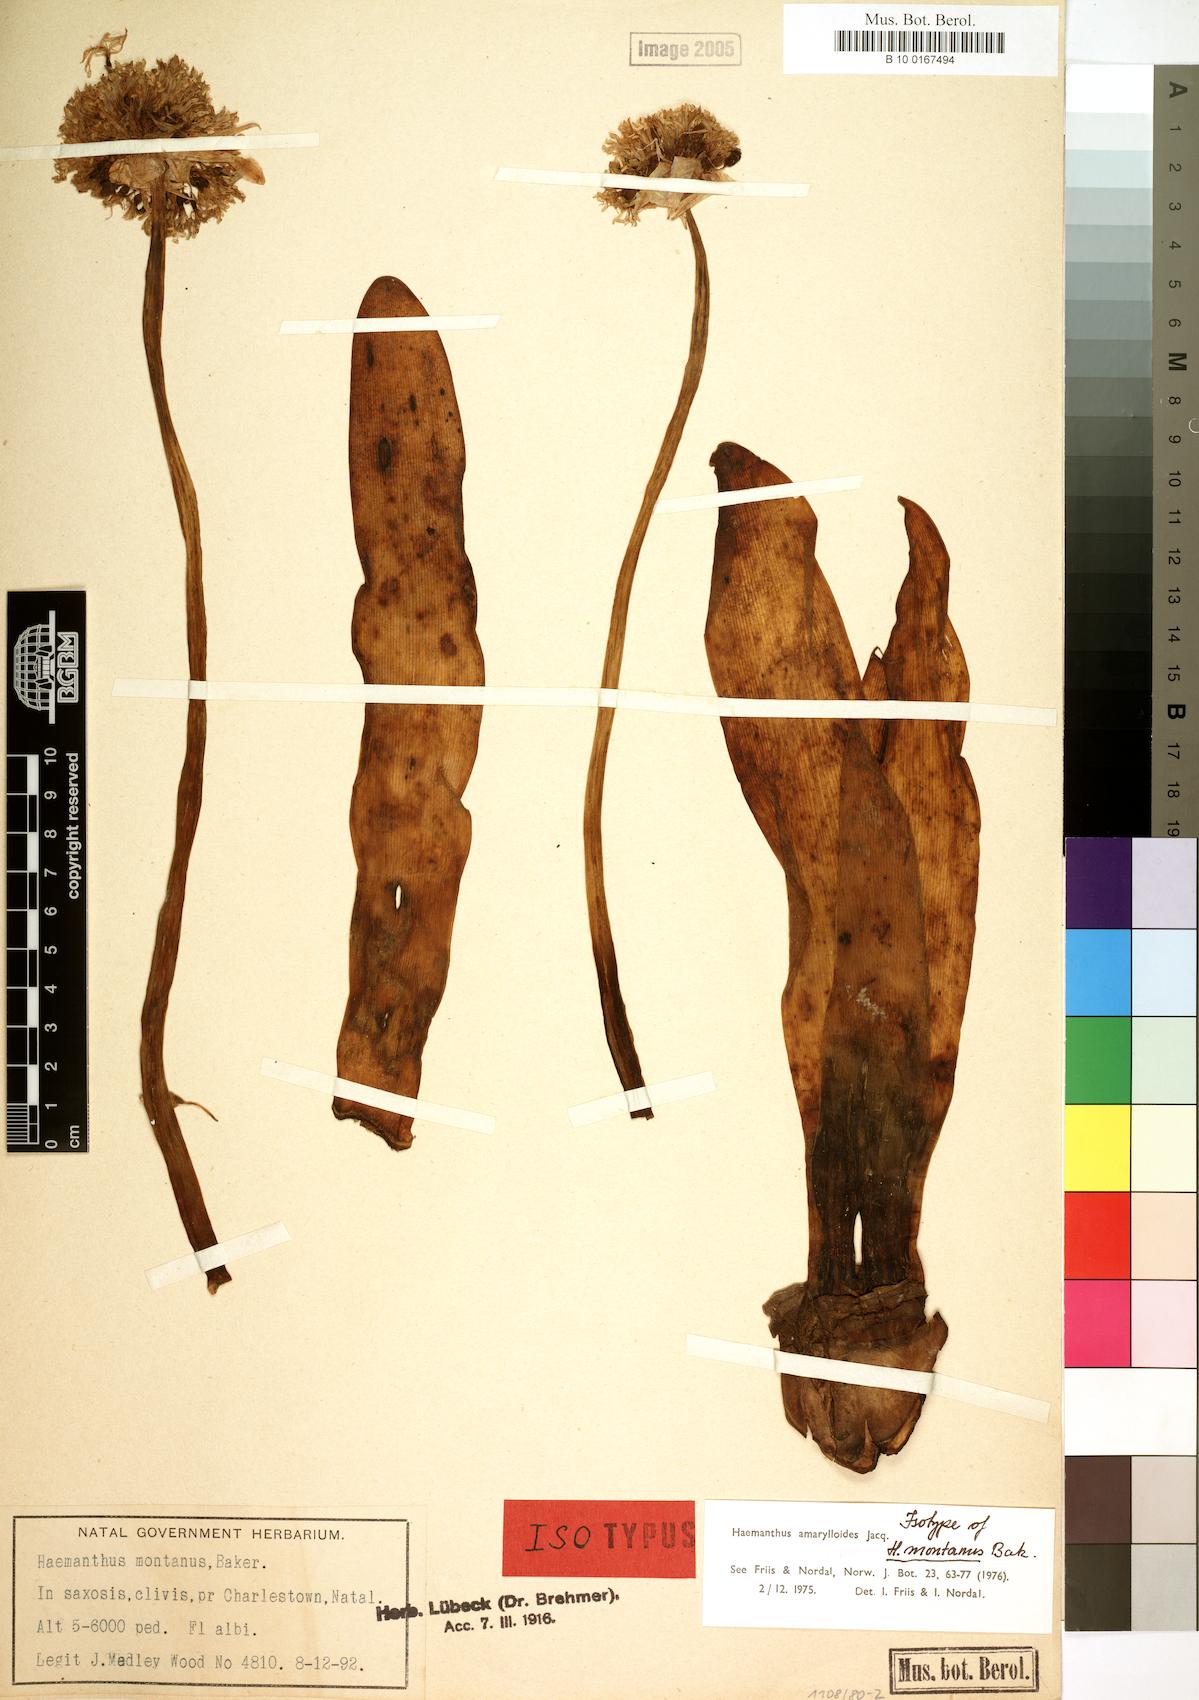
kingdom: Plantae
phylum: Tracheophyta
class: Liliopsida
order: Asparagales
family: Amaryllidaceae
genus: Haemanthus
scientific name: Haemanthus amarylloides
